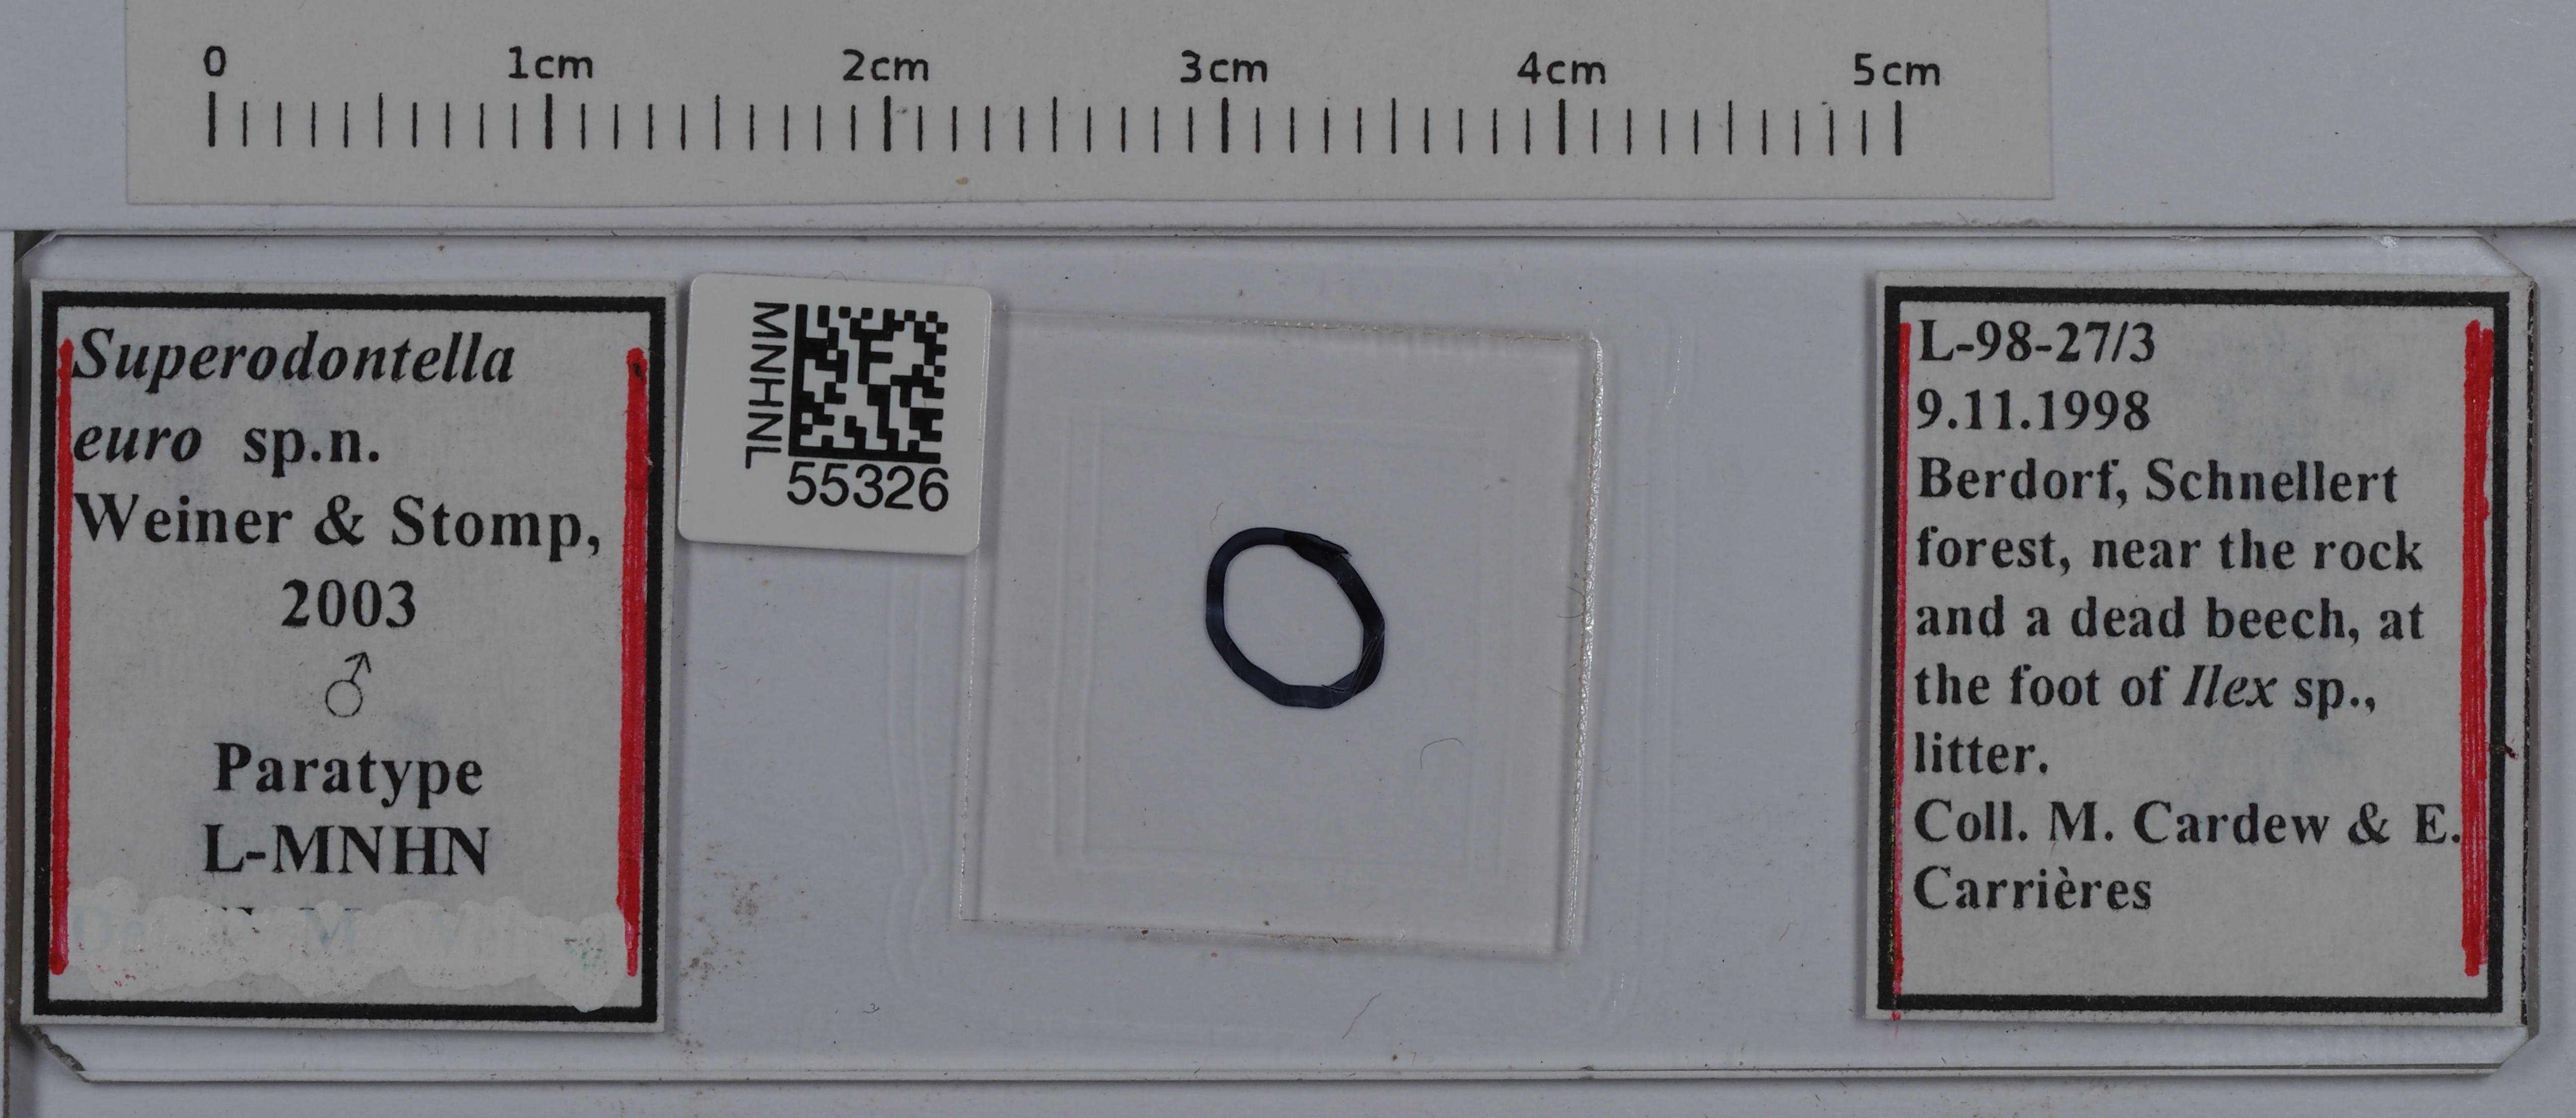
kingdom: Animalia
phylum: Arthropoda
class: Collembola
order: Poduromorpha
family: Odontellidae
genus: Superodontella
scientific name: Superodontella euro
